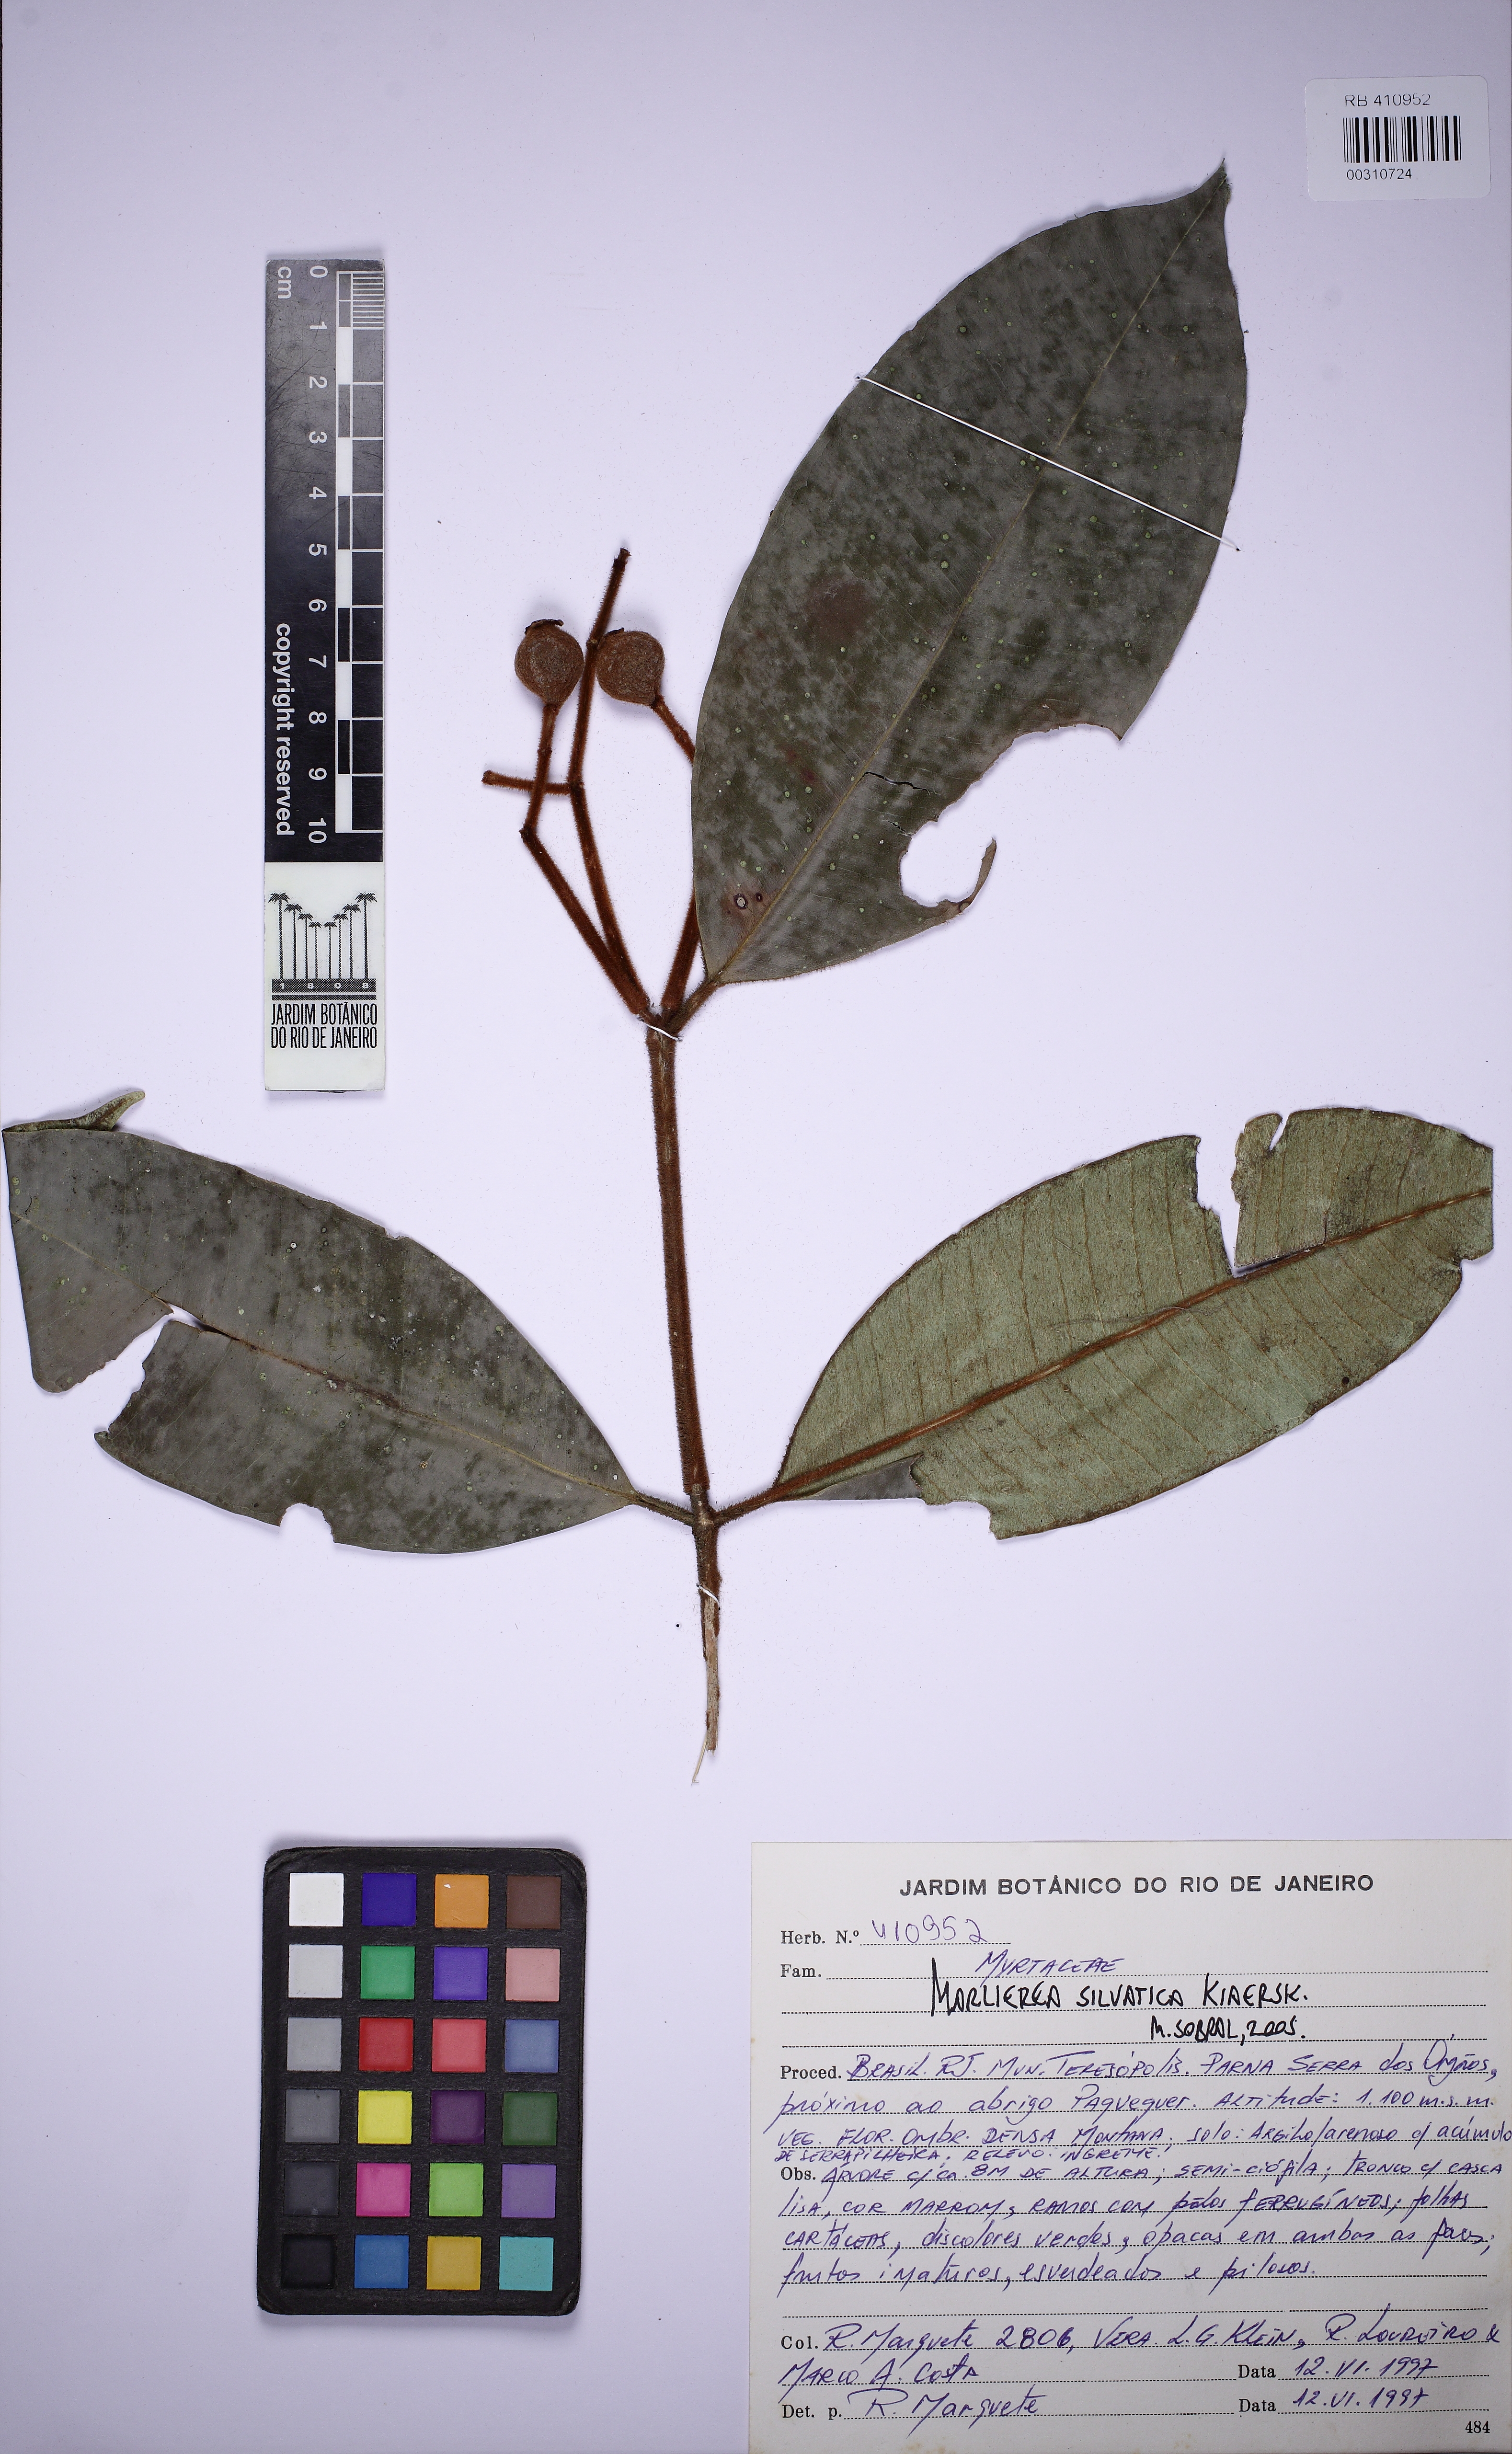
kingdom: Plantae
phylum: Tracheophyta
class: Magnoliopsida
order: Myrtales
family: Myrtaceae
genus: Myrcia
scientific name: Myrcia ferruginea
